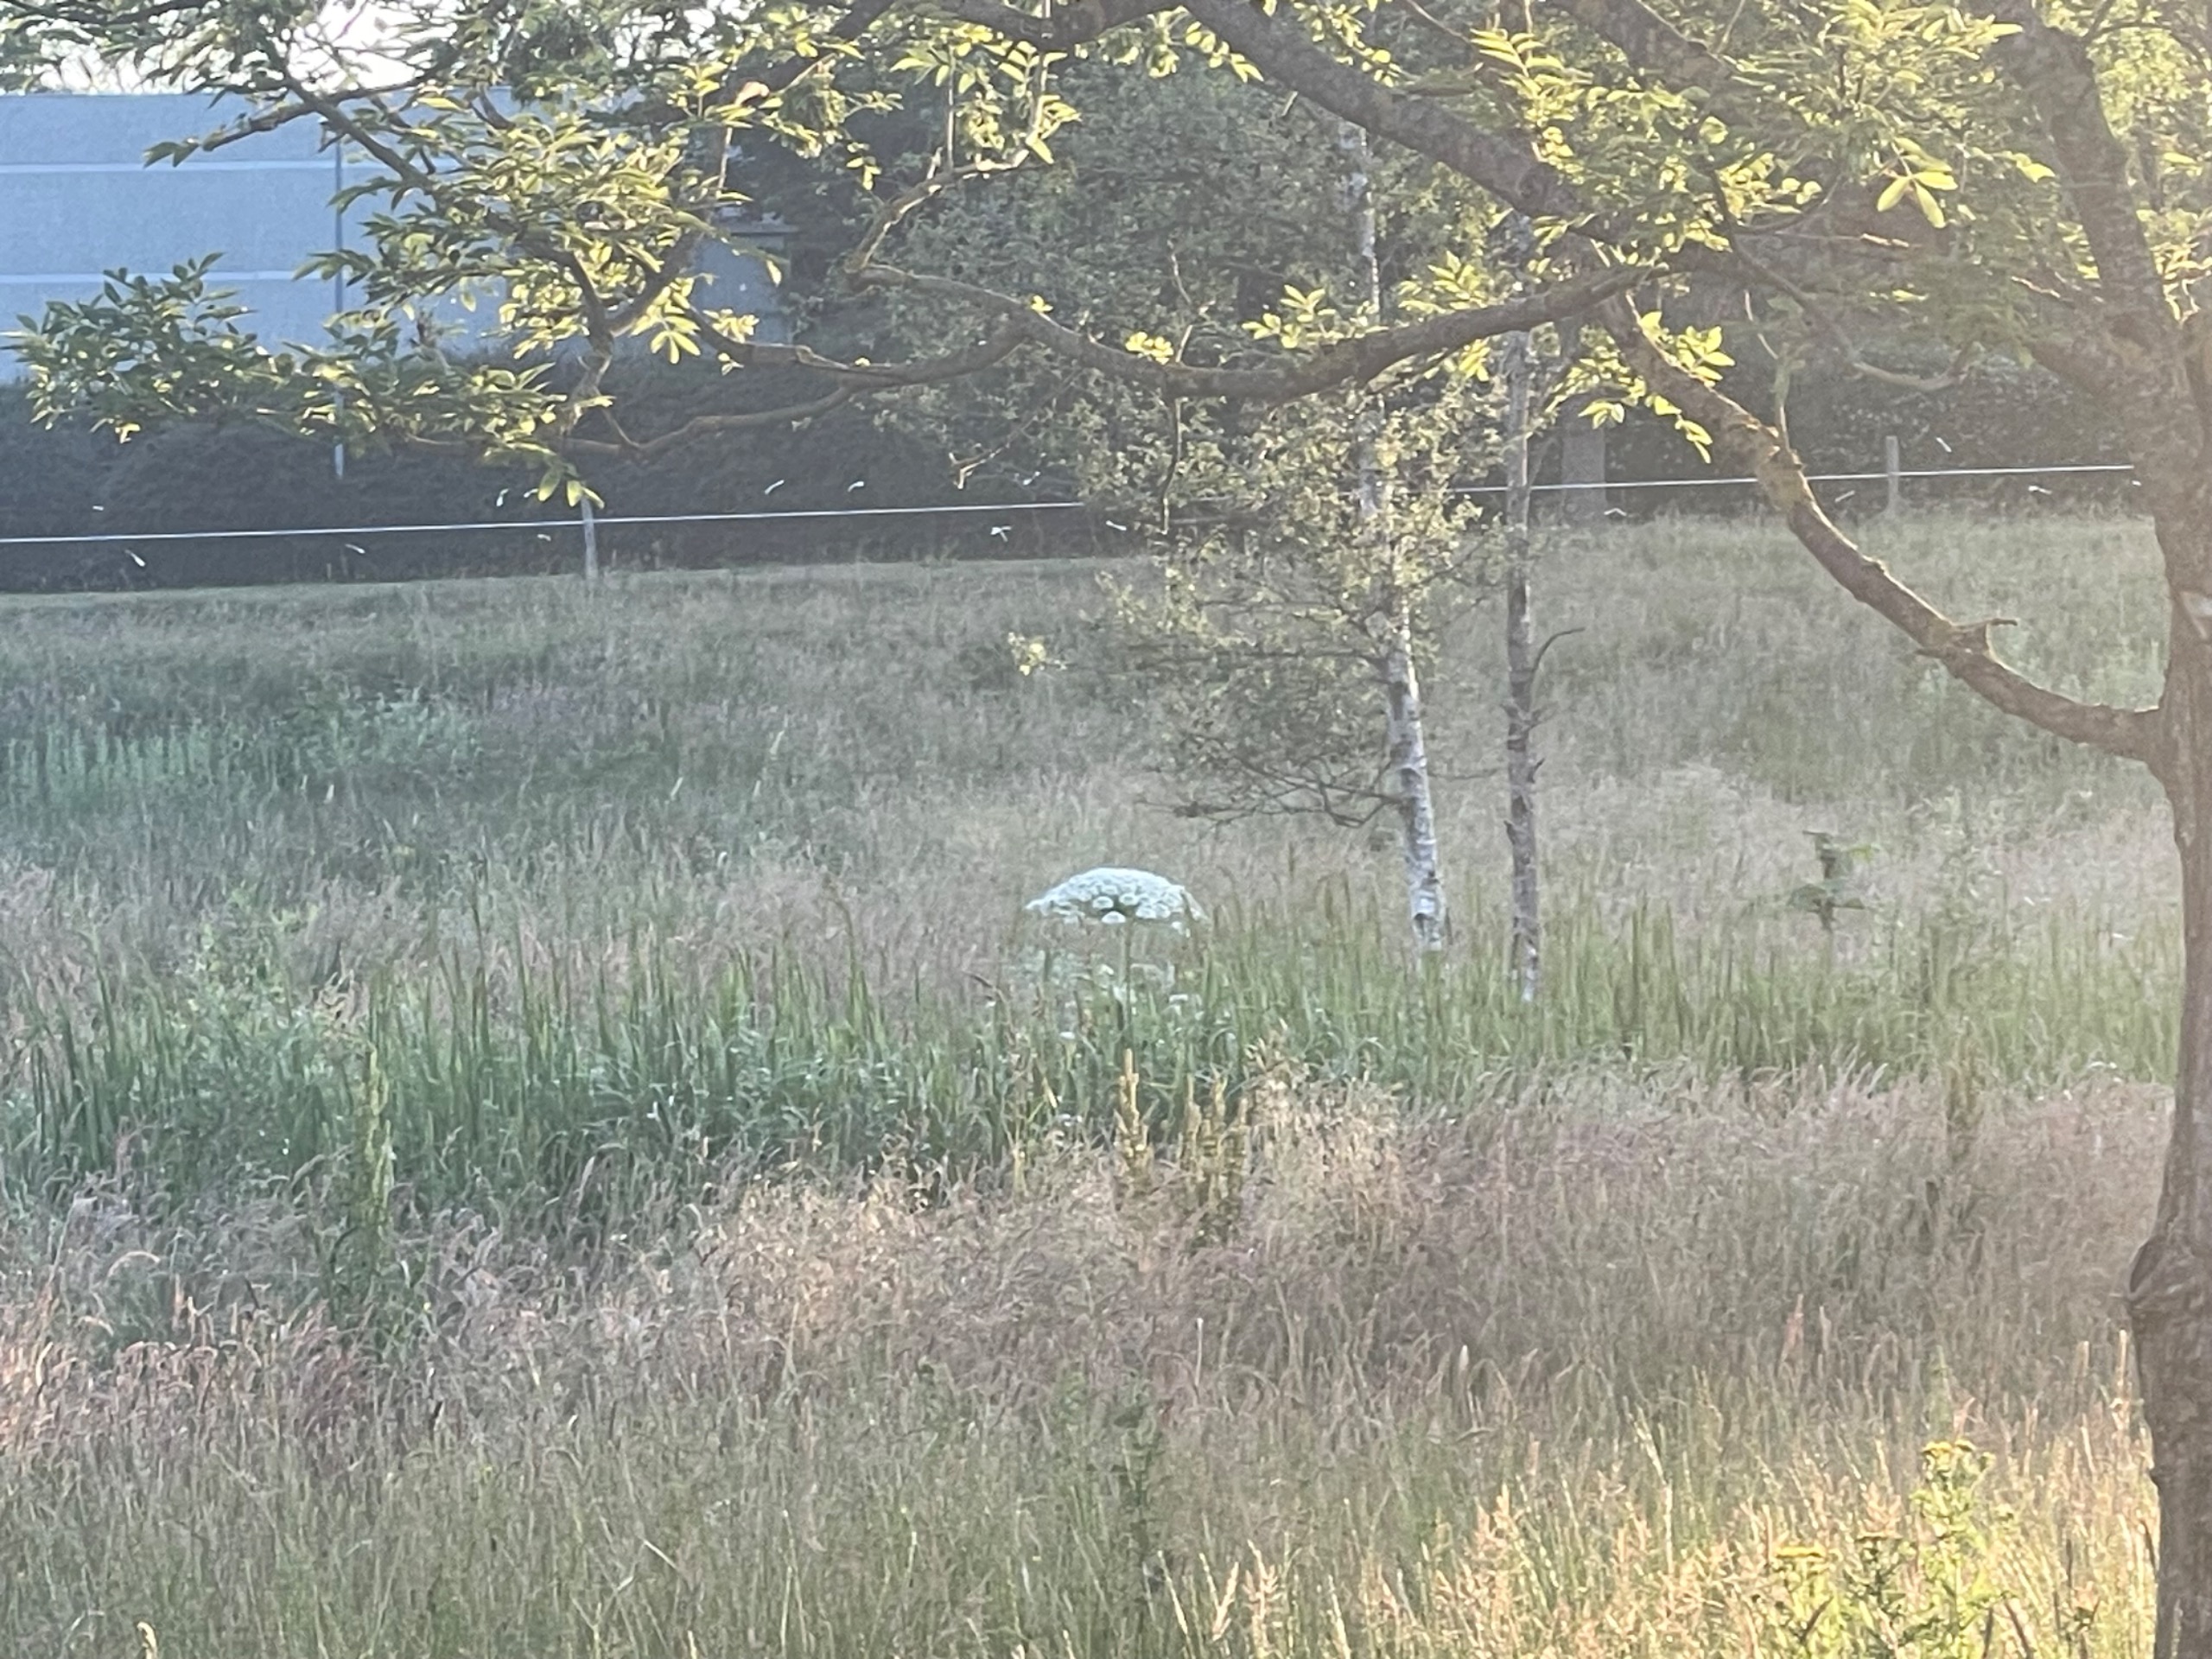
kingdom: Plantae
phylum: Tracheophyta
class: Magnoliopsida
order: Apiales
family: Apiaceae
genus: Heracleum
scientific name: Heracleum mantegazzianum
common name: Kæmpe-bjørneklo
